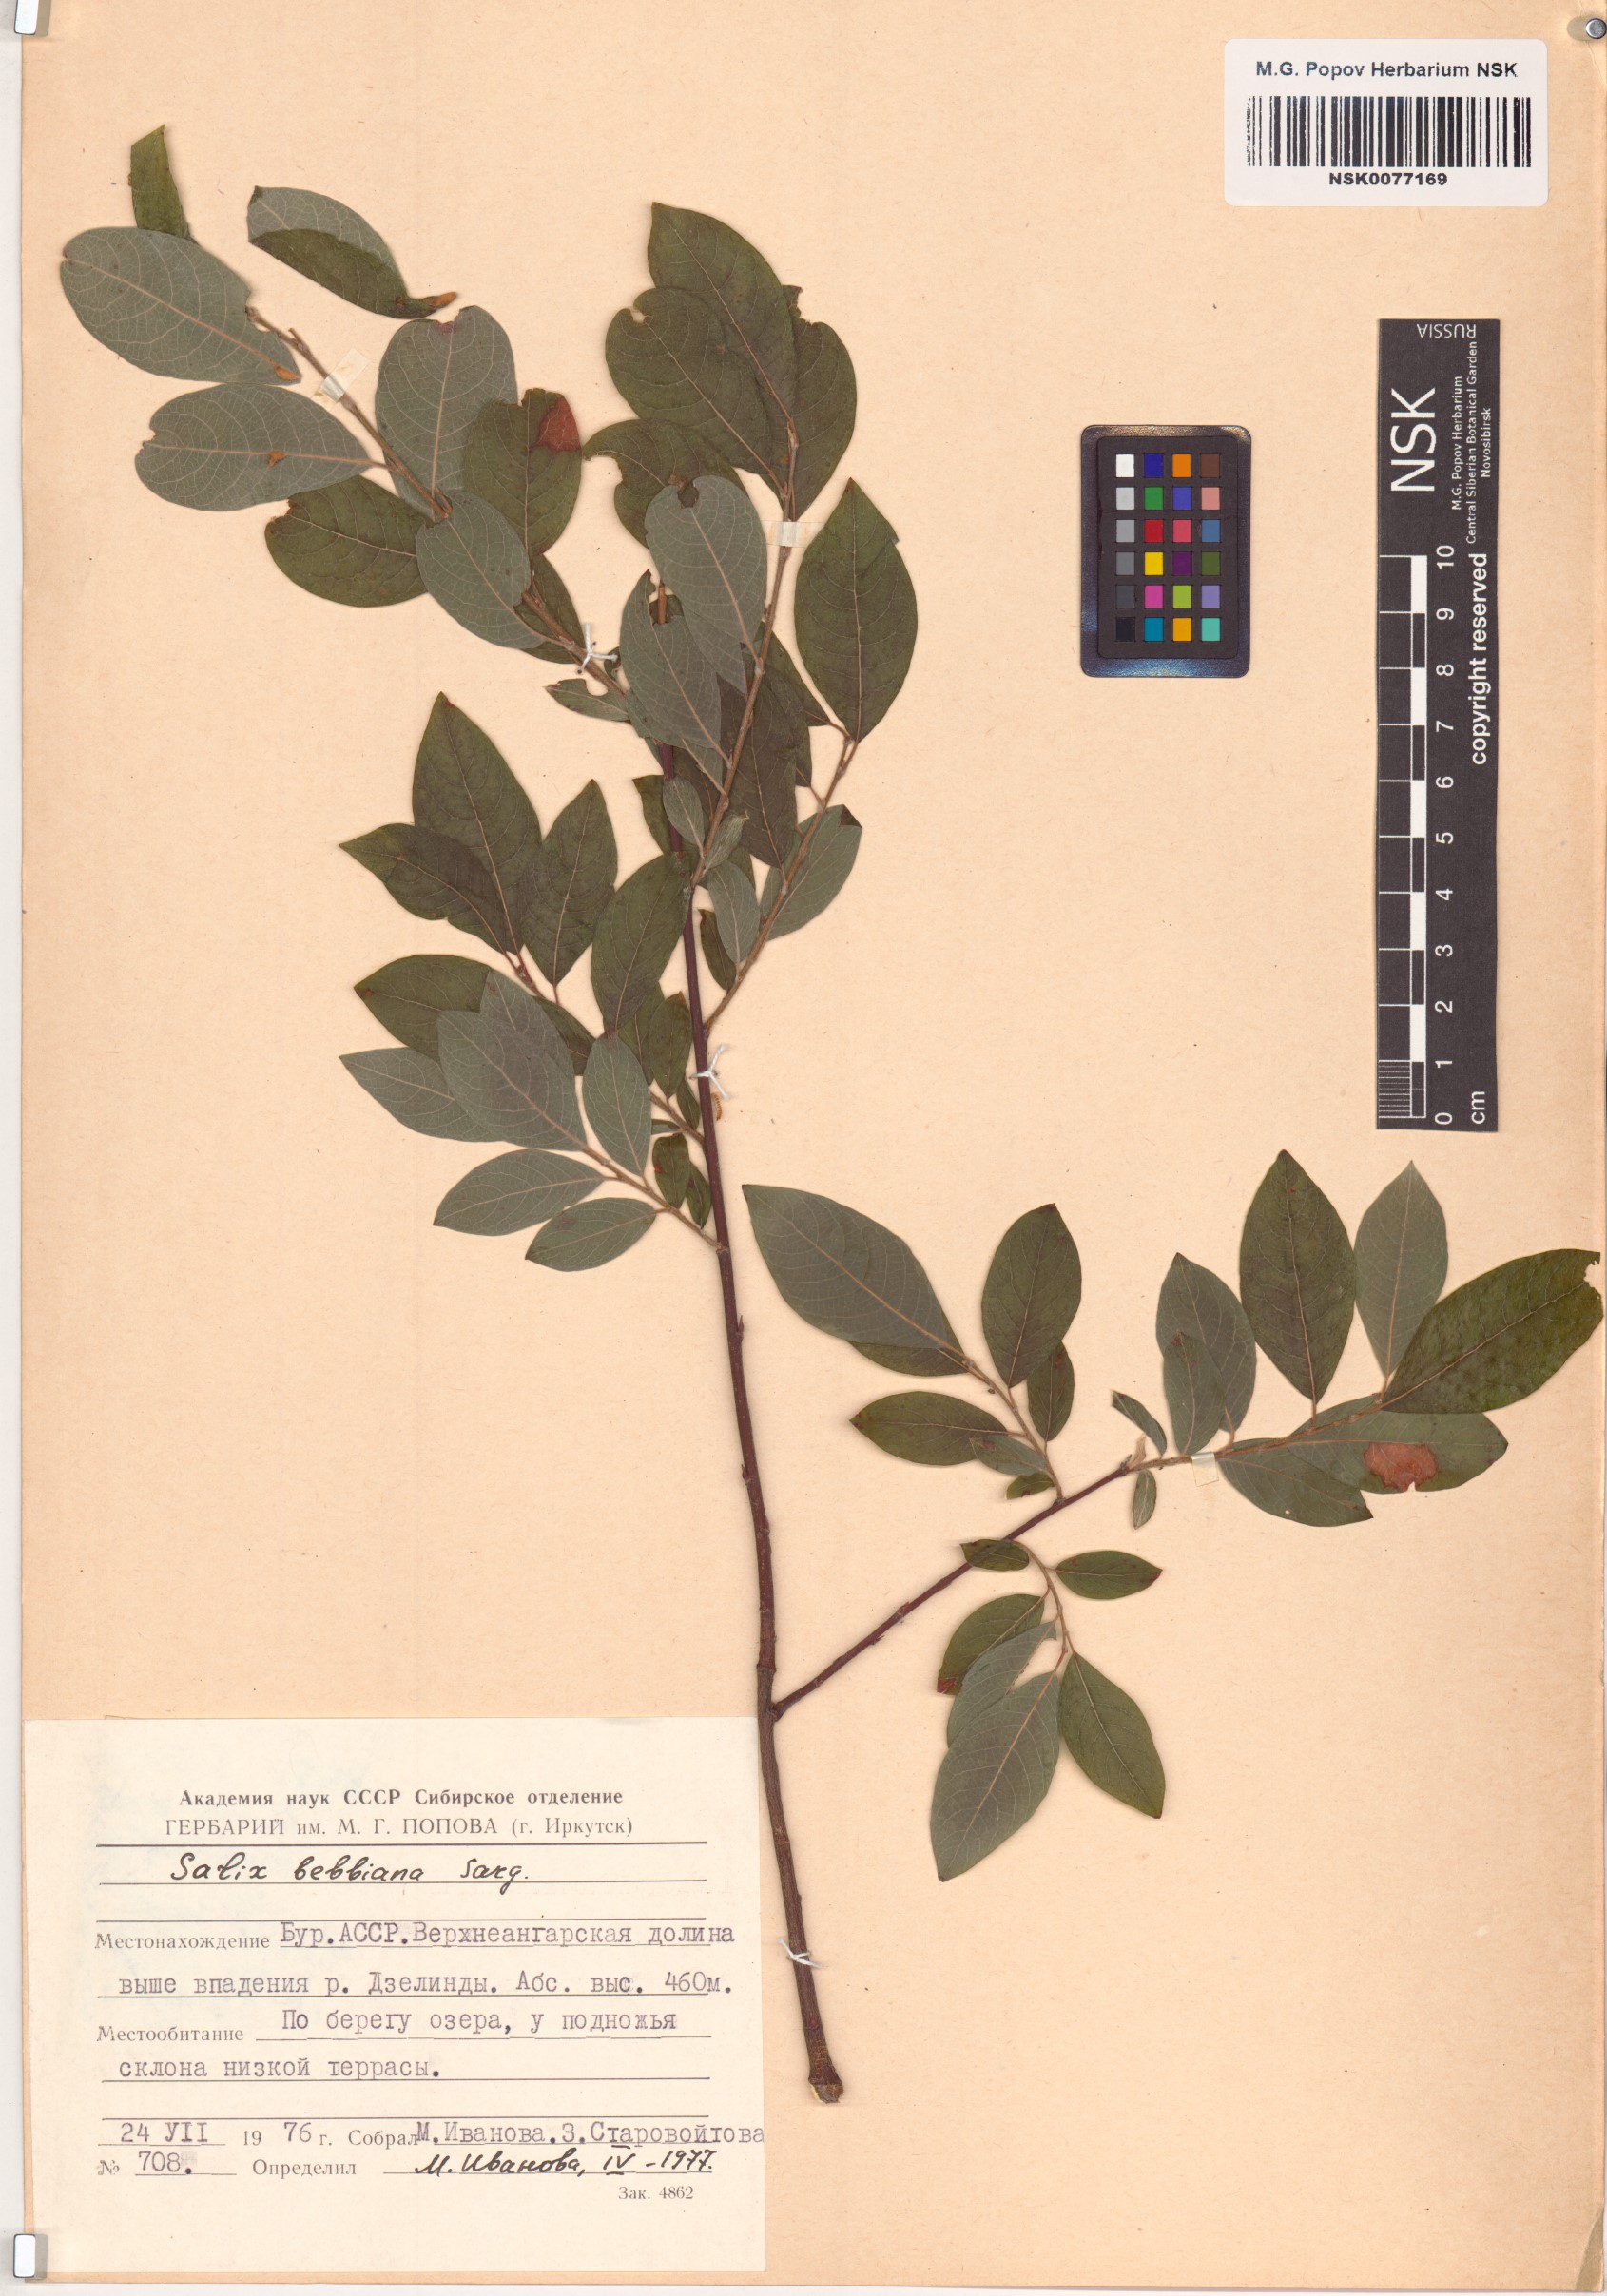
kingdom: Plantae
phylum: Tracheophyta
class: Magnoliopsida
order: Malpighiales
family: Salicaceae
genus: Salix
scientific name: Salix bebbiana
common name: Bebb's willow
